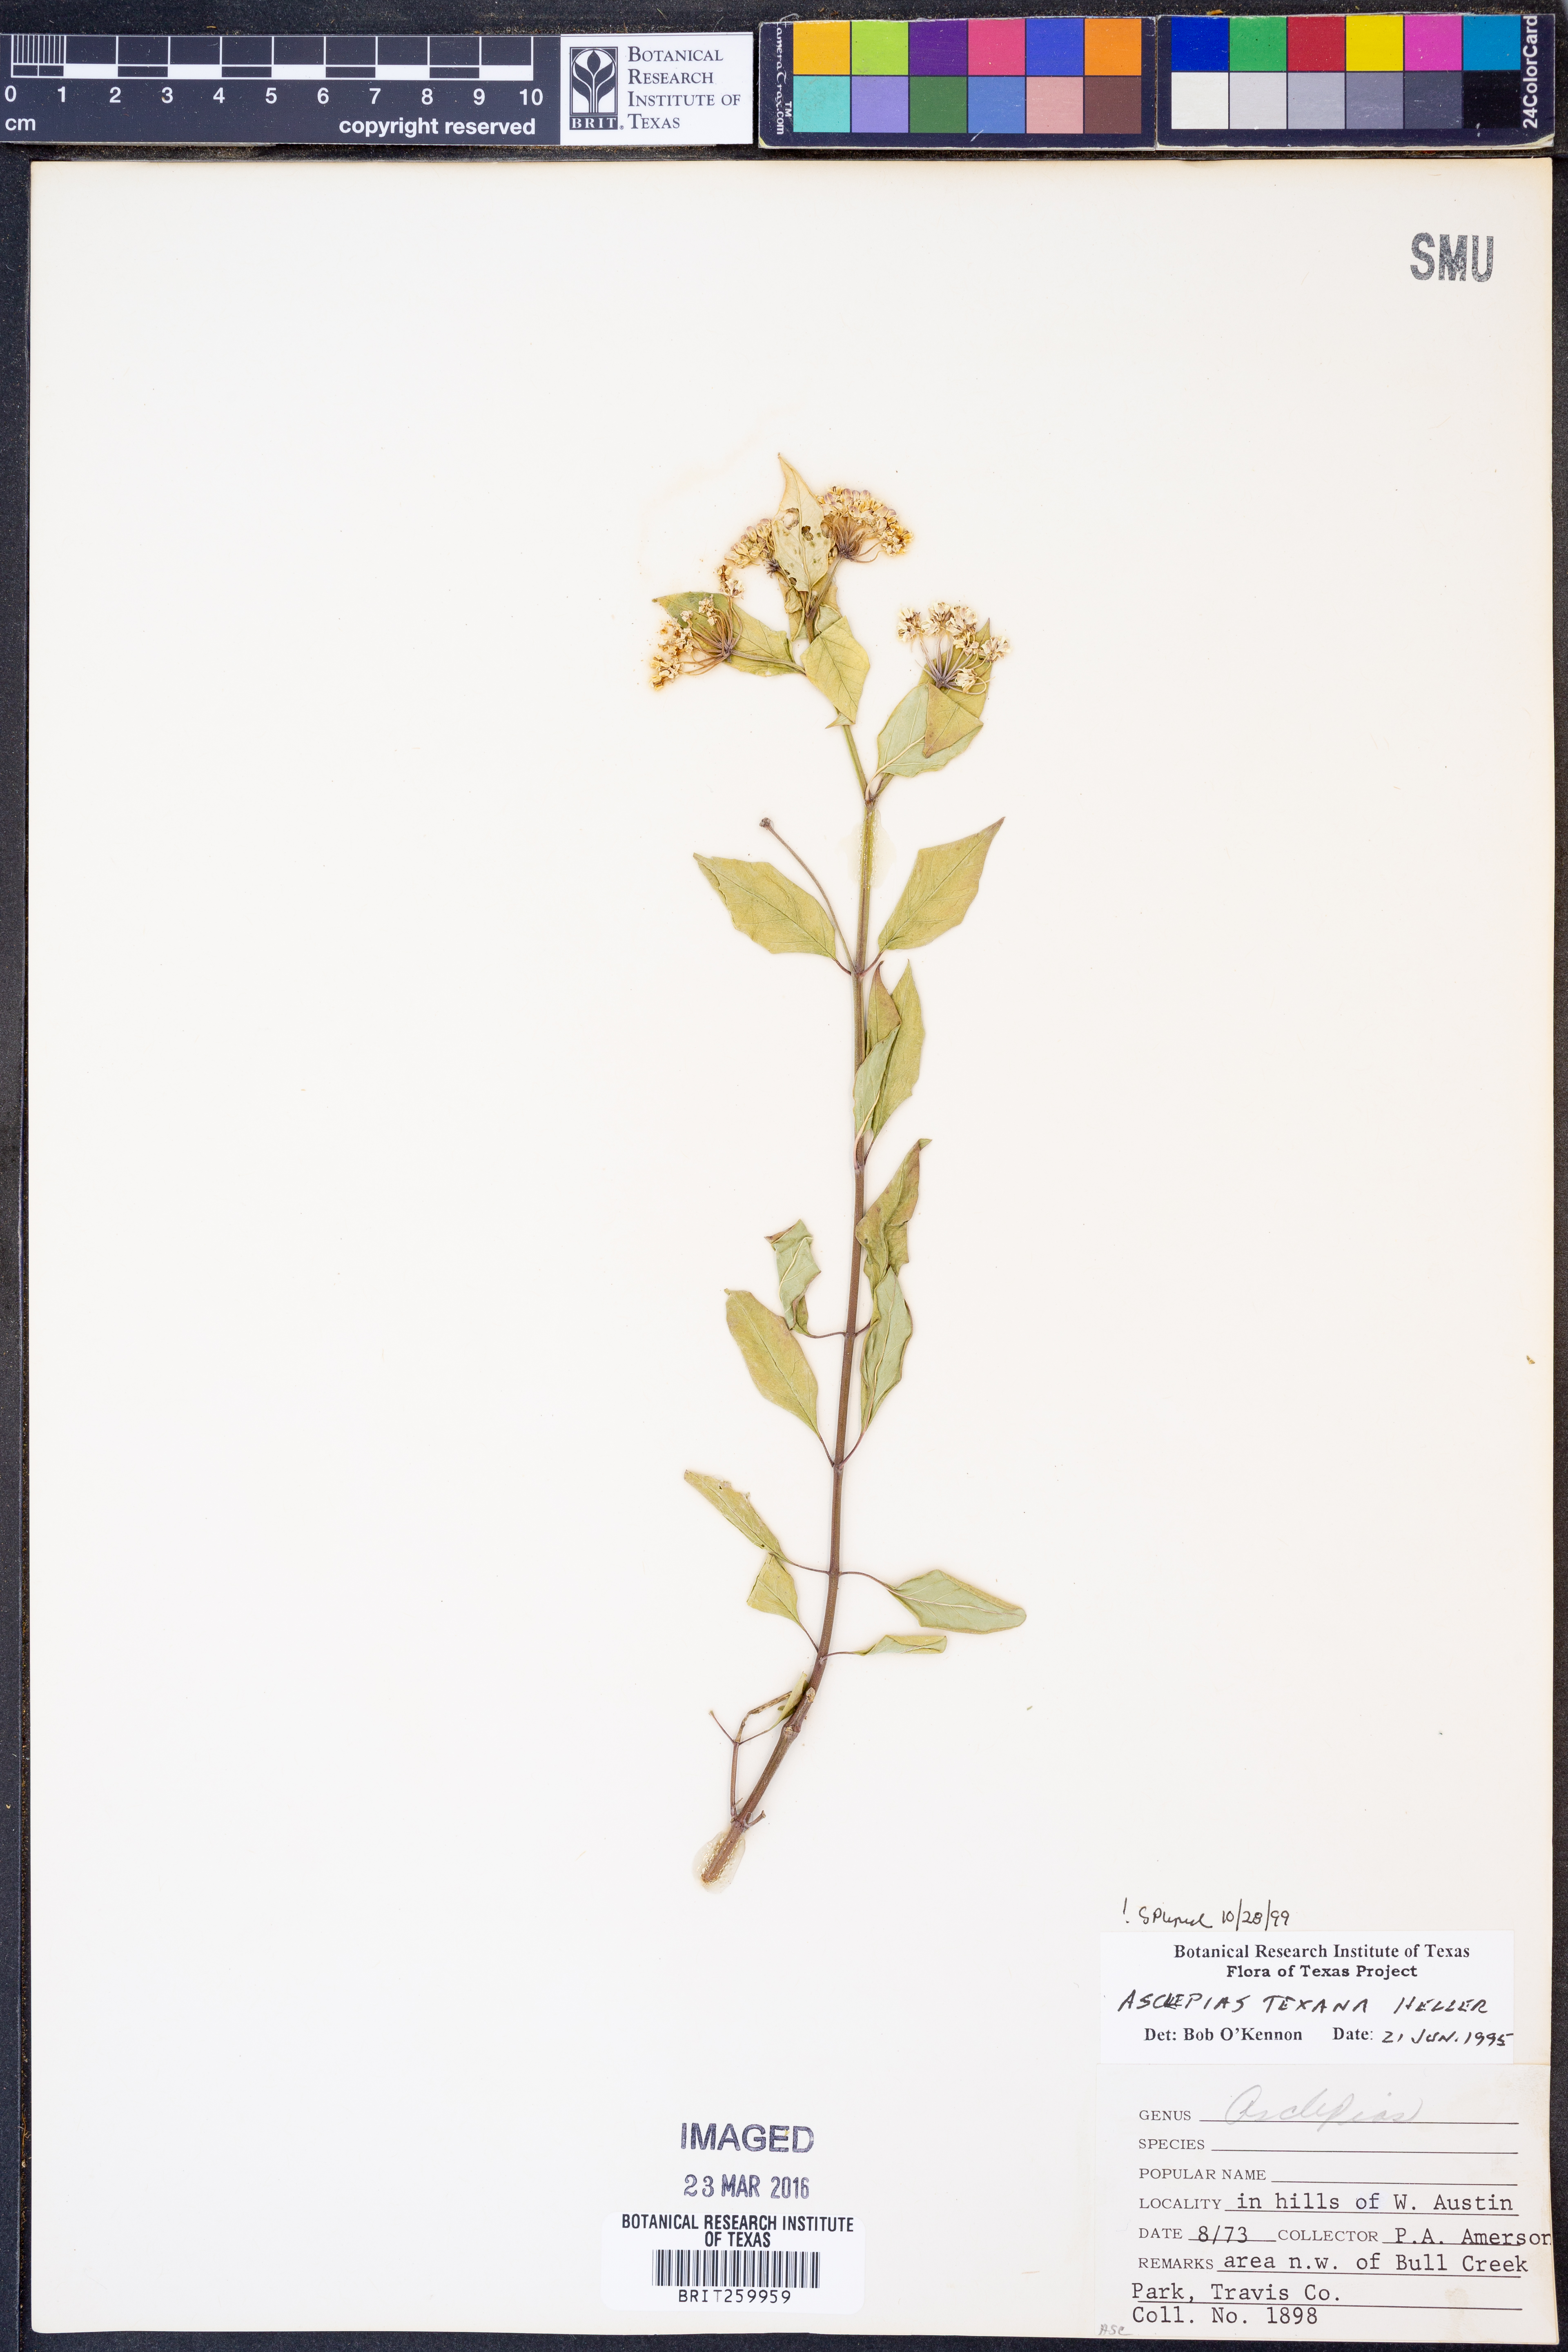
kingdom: Plantae
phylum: Tracheophyta
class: Magnoliopsida
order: Gentianales
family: Apocynaceae
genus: Asclepias
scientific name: Asclepias texana
